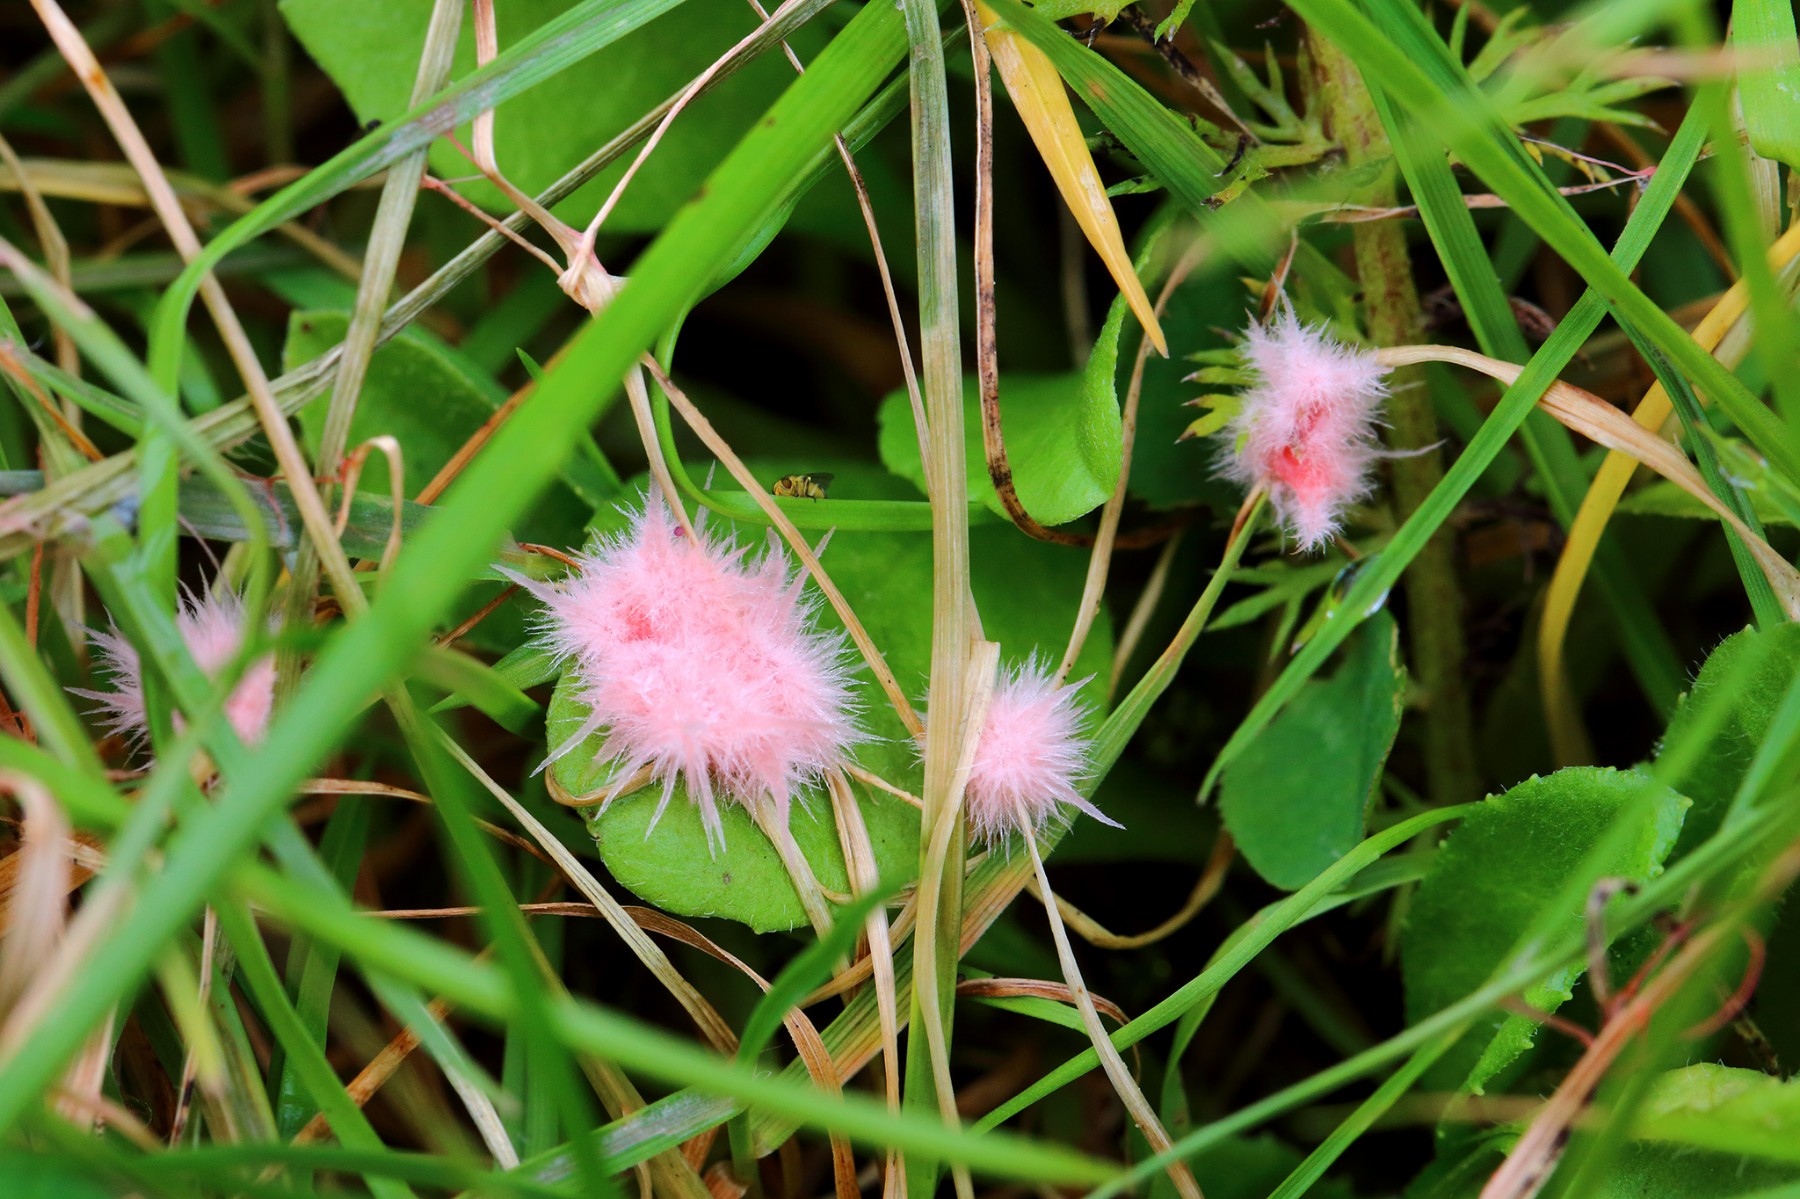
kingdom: Fungi
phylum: Basidiomycota
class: Agaricomycetes
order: Corticiales
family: Corticiaceae
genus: Laetisaria
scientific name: Laetisaria
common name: rødtråd
